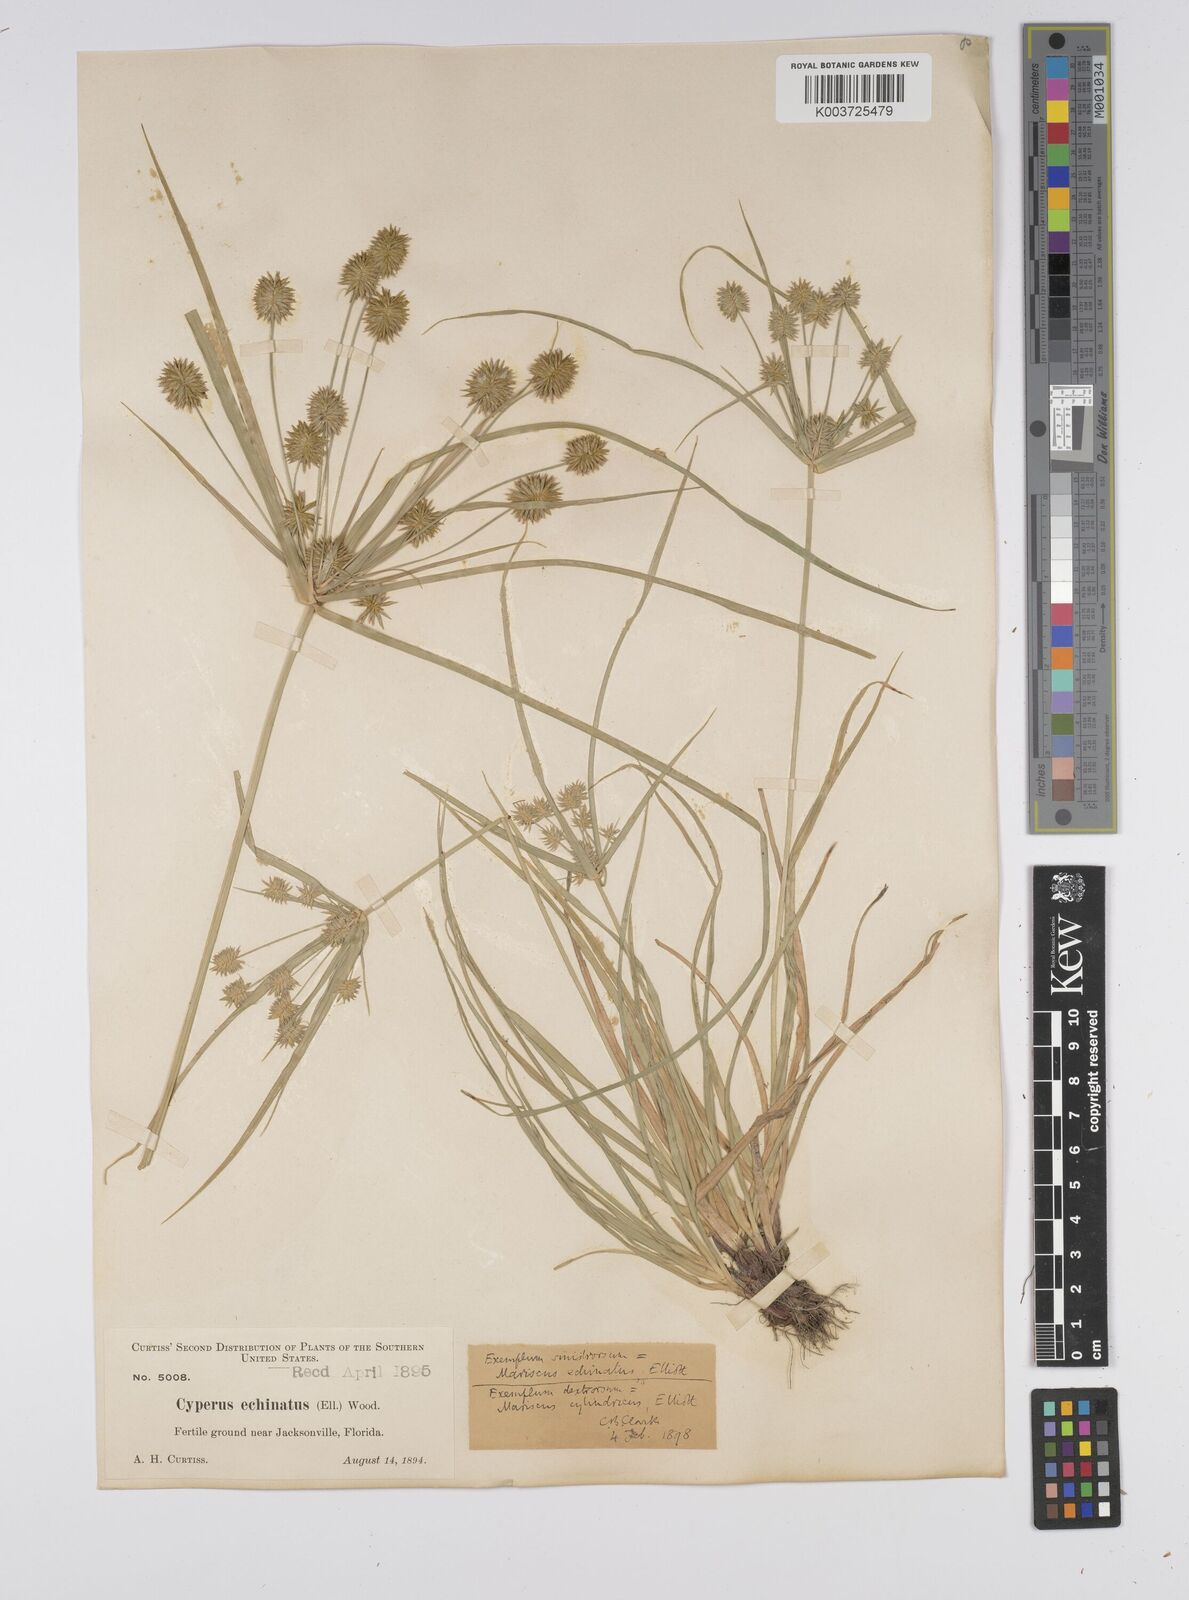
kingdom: Plantae
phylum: Tracheophyta
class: Liliopsida
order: Poales
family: Cyperaceae
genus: Cyperus
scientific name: Cyperus luzulae
